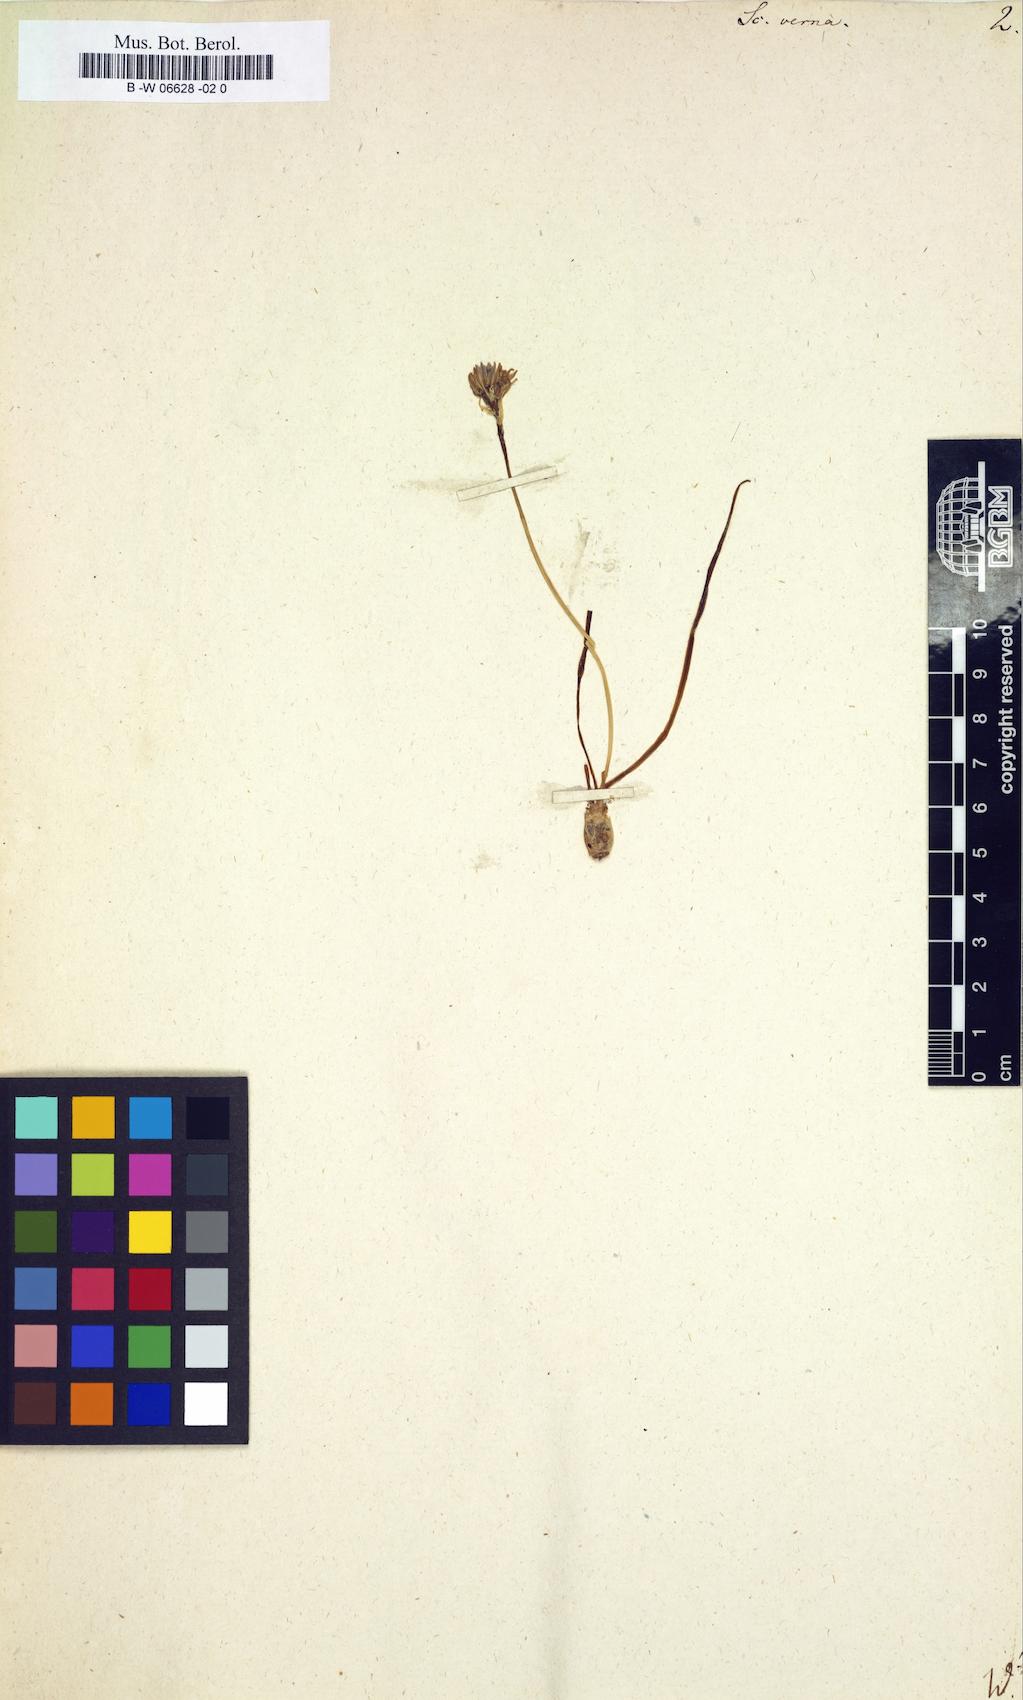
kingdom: Plantae
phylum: Tracheophyta
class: Liliopsida
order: Asparagales
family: Asparagaceae
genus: Scilla
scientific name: Scilla verna
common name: Spring squill
